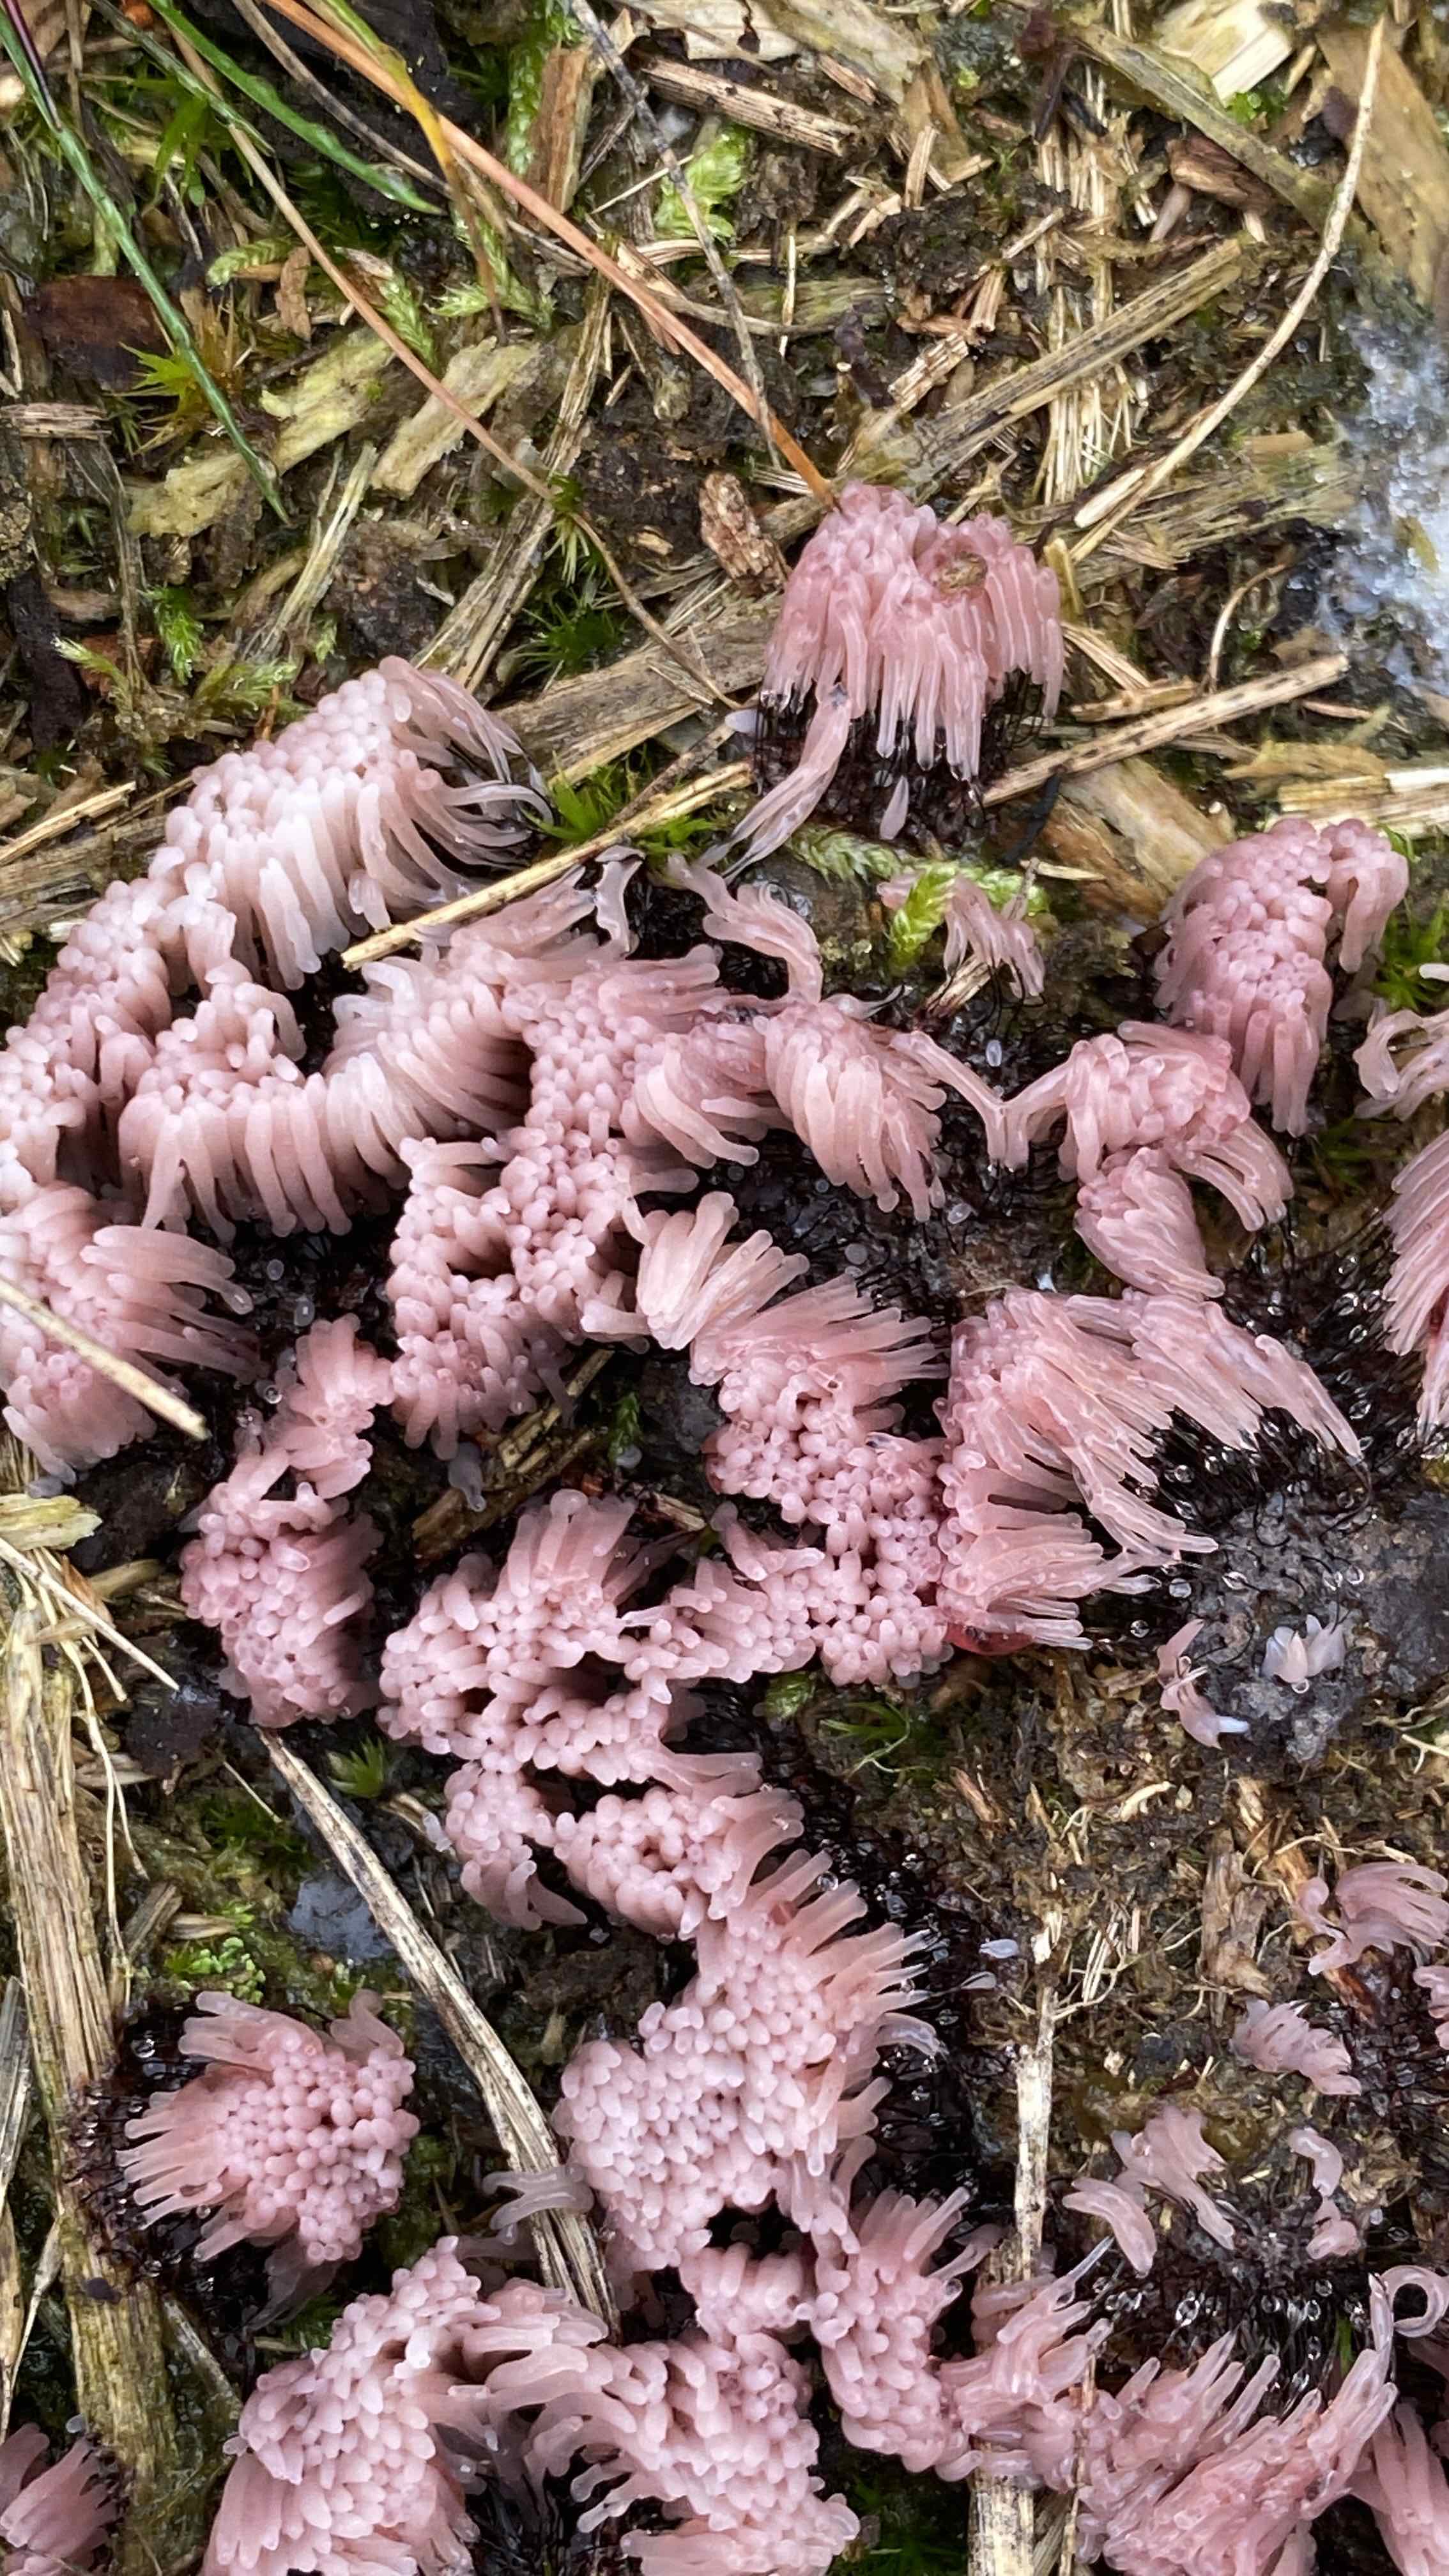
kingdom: Protozoa
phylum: Mycetozoa
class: Myxomycetes
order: Stemonitidales
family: Stemonitidaceae
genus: Stemonitis
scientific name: Stemonitis
